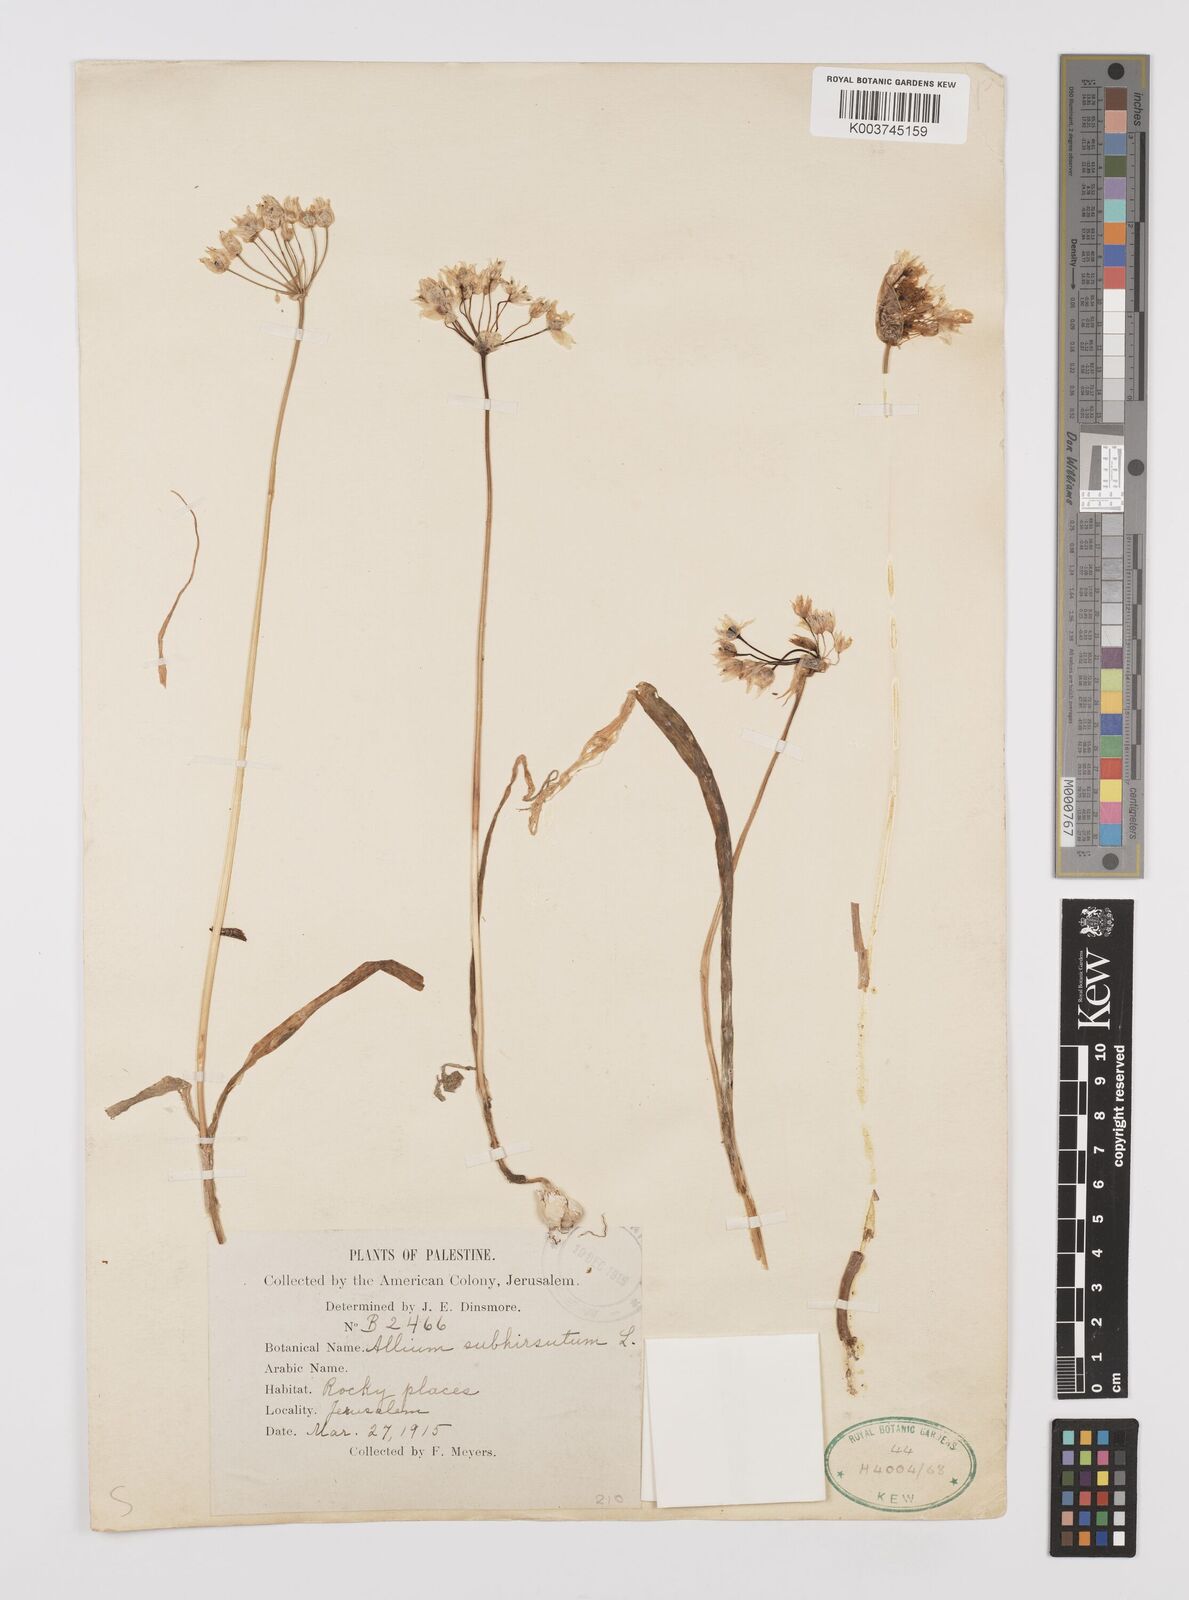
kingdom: Plantae
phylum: Tracheophyta
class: Liliopsida
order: Asparagales
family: Amaryllidaceae
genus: Allium
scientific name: Allium subhirsutum
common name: Hairy garlic
